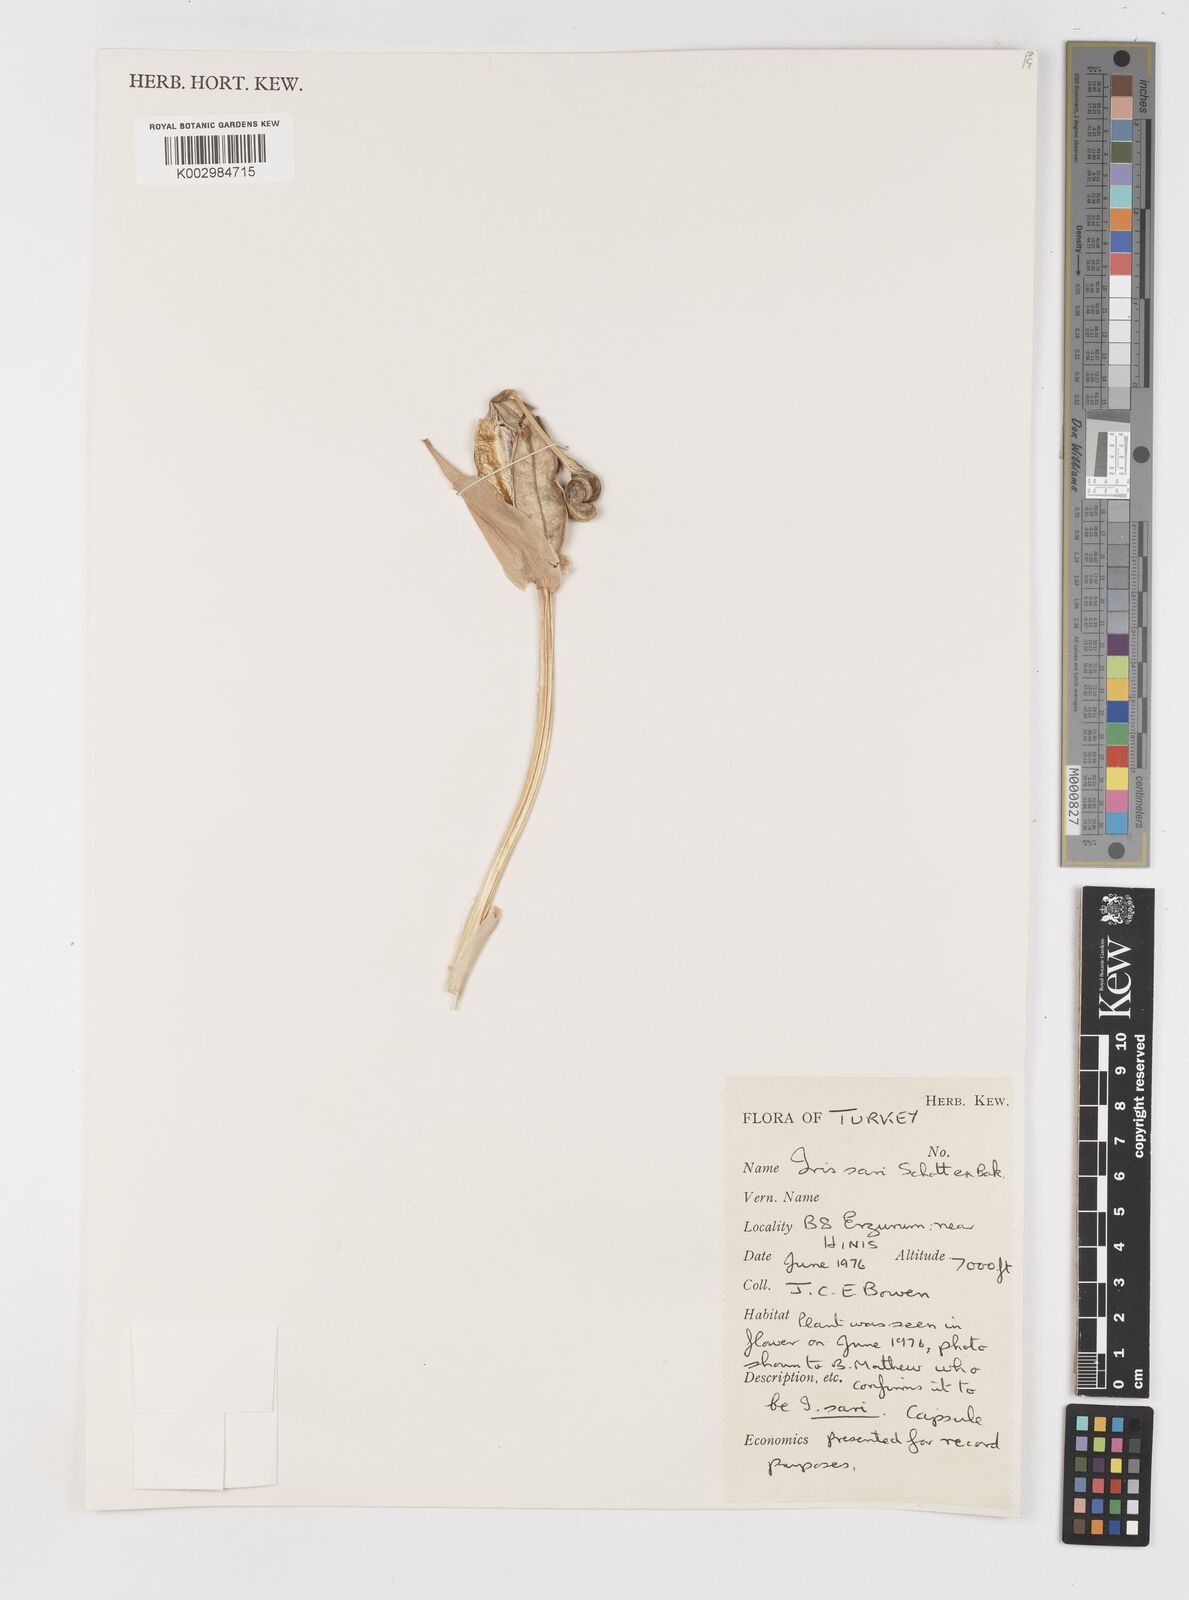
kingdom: Plantae
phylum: Tracheophyta
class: Liliopsida
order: Asparagales
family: Iridaceae
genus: Iris
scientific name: Iris sari
